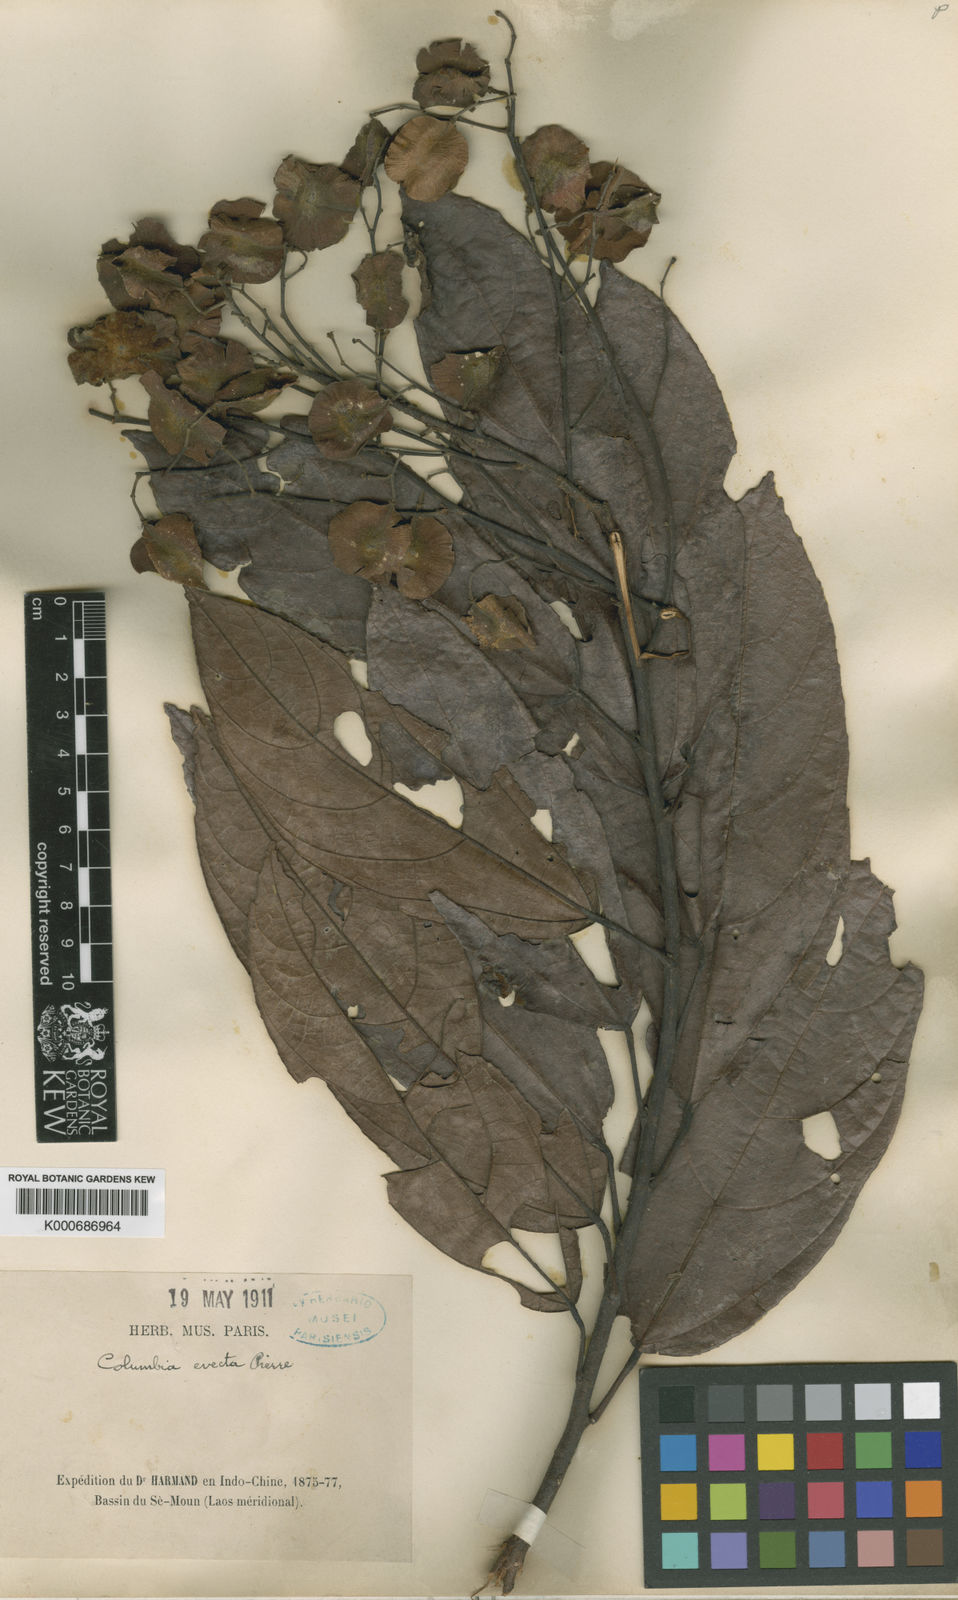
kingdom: Plantae
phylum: Tracheophyta
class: Magnoliopsida
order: Malvales
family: Malvaceae
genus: Colona
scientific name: Colona
